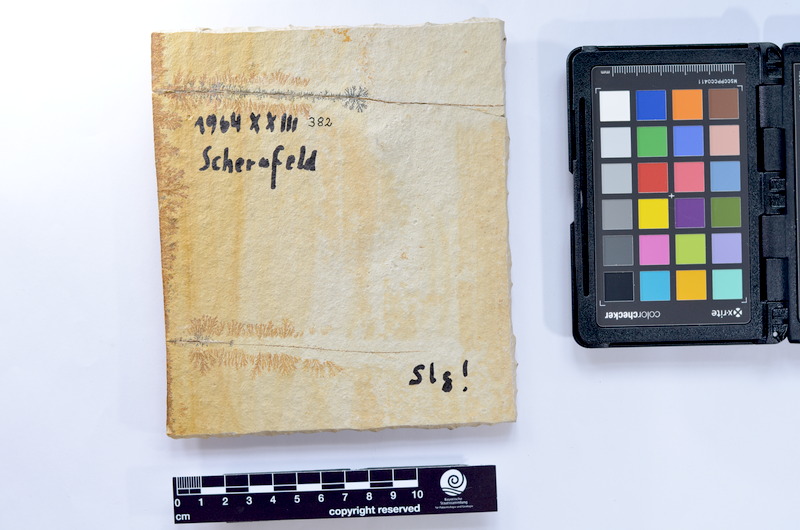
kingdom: Animalia
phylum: Chordata
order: Elopiformes
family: Anaethalionidae
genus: Anaethalion
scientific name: Anaethalion knorri
